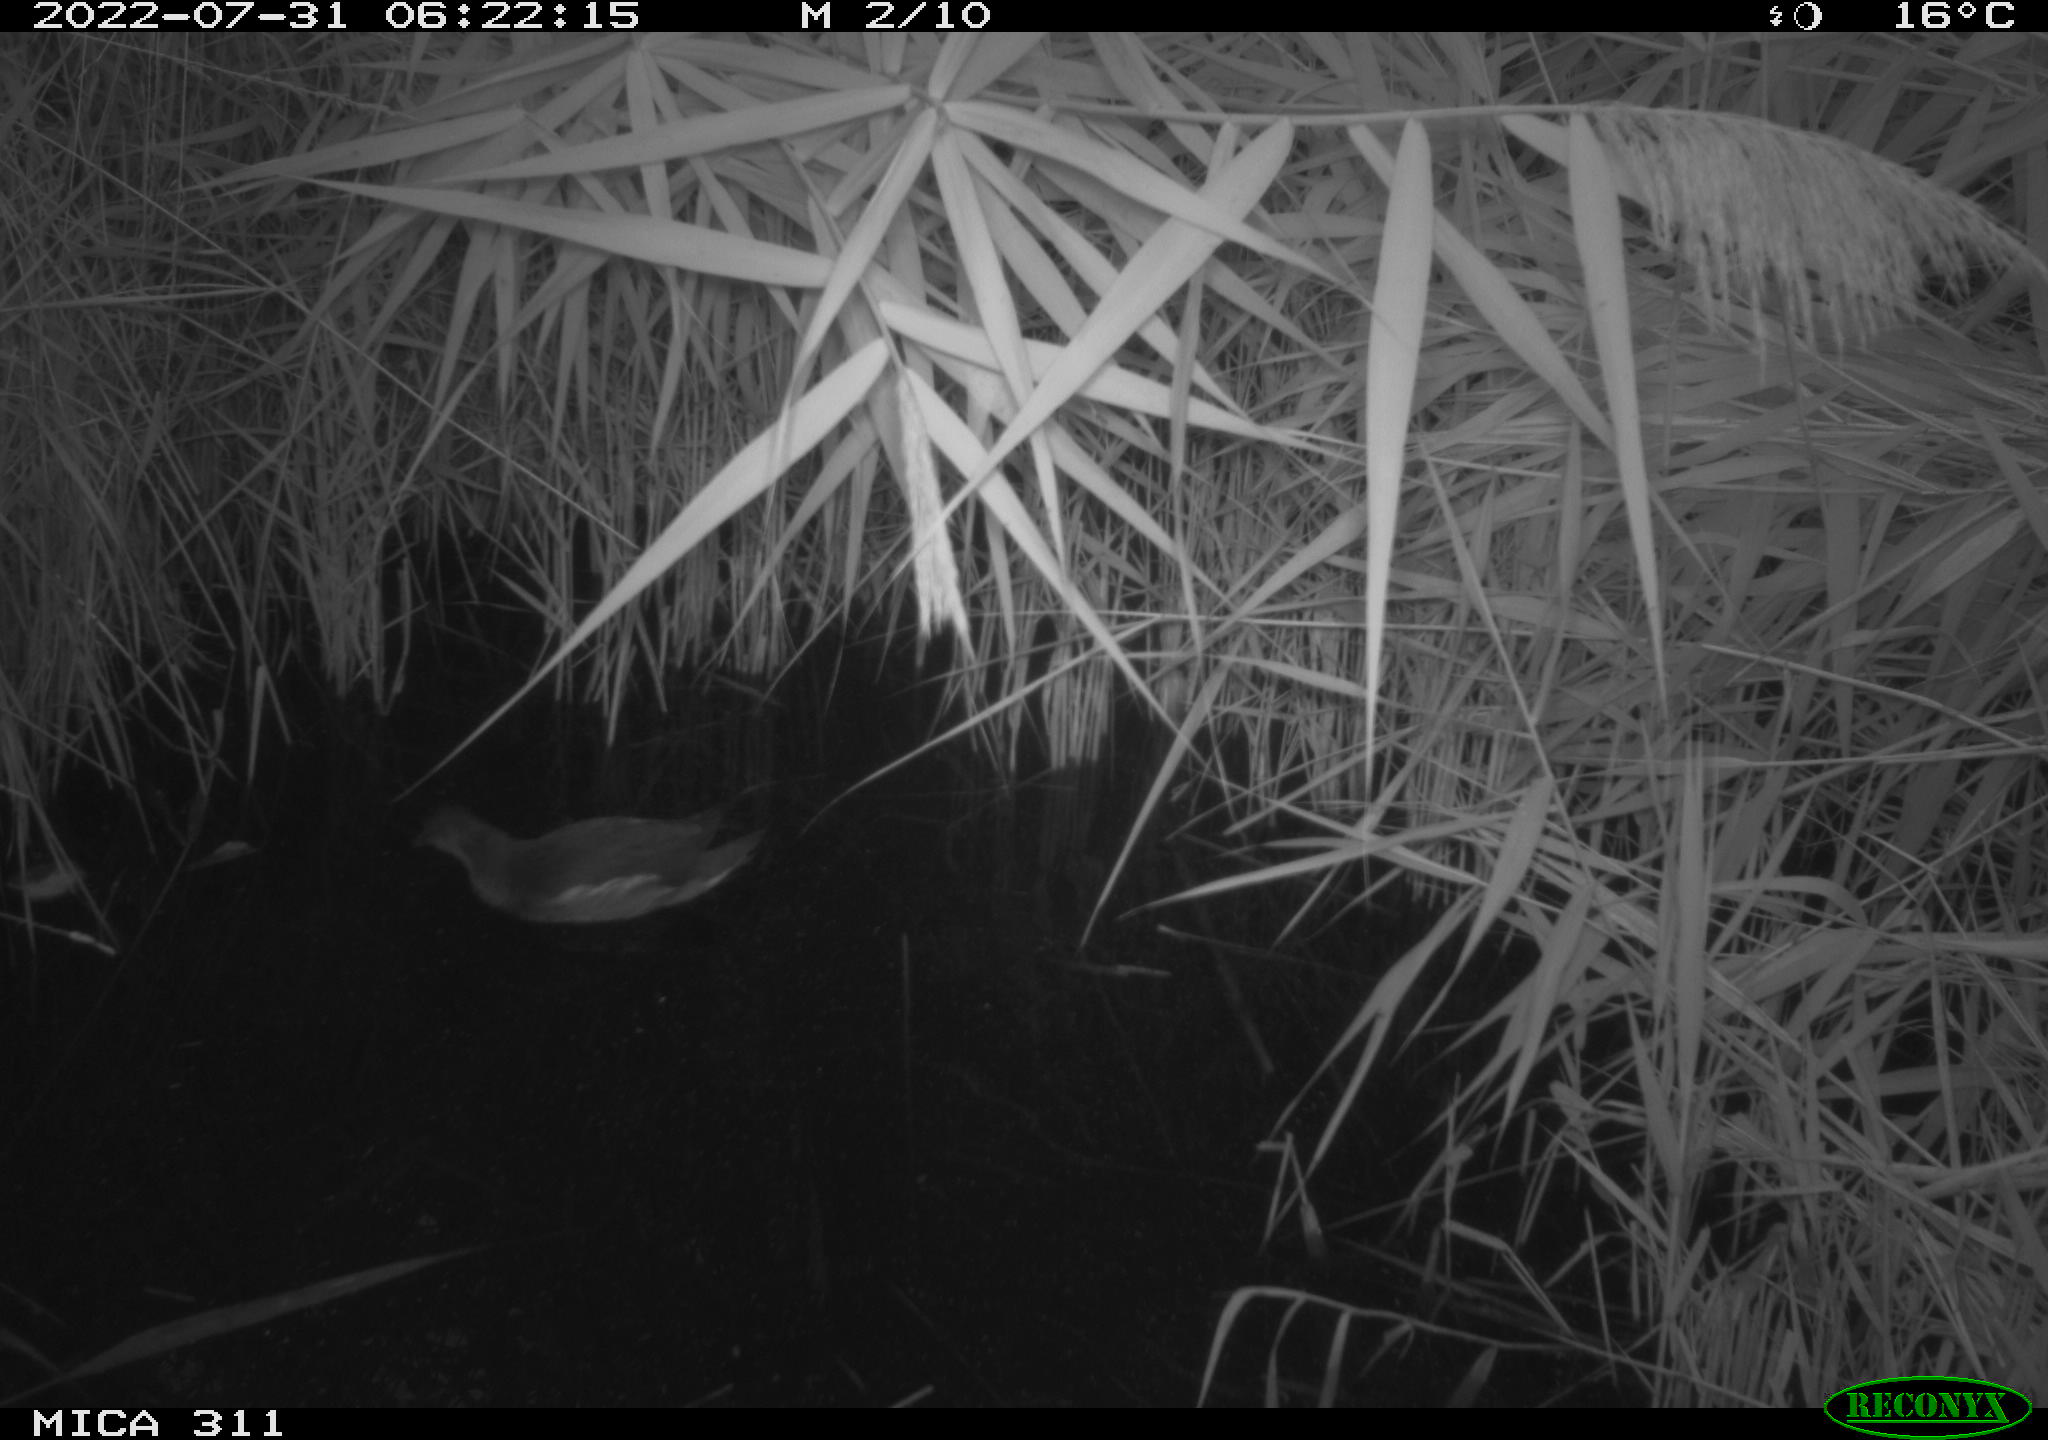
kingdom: Animalia
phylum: Chordata
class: Aves
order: Gruiformes
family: Rallidae
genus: Gallinula
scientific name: Gallinula chloropus
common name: Common moorhen
